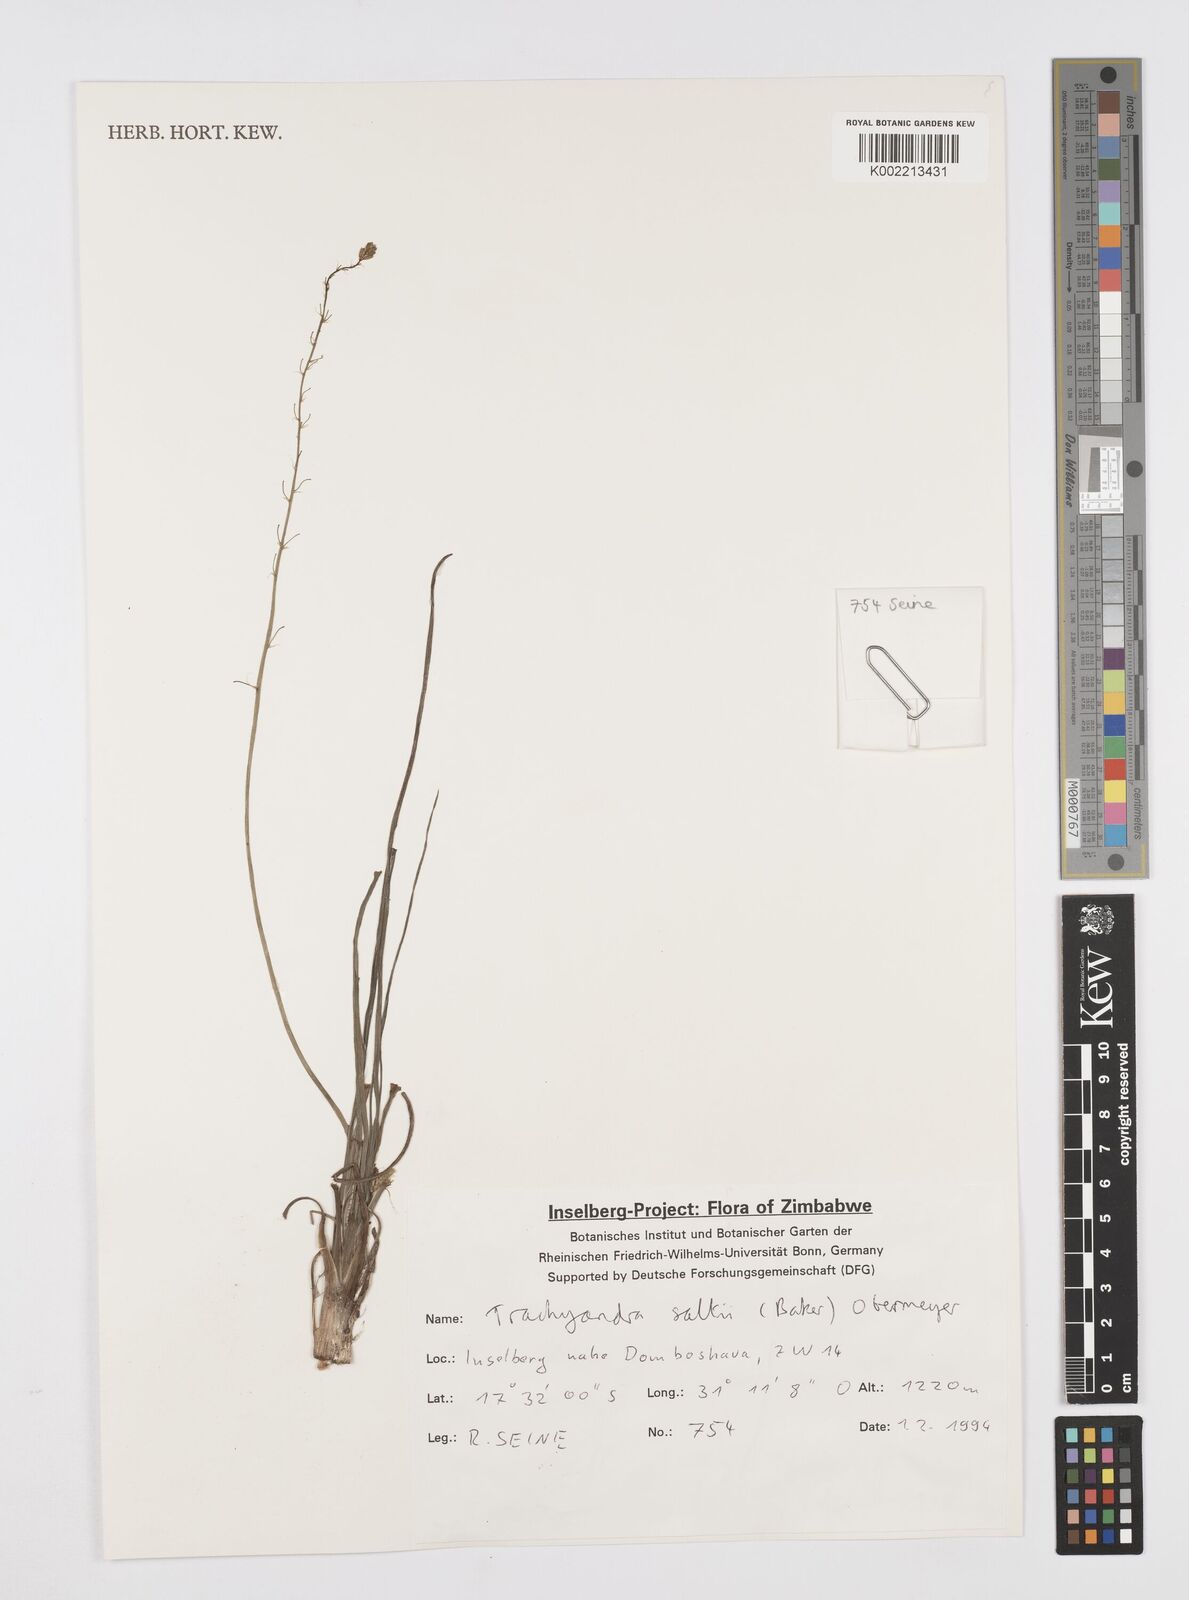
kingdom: Plantae
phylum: Tracheophyta
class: Liliopsida
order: Asparagales
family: Asphodelaceae
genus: Trachyandra
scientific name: Trachyandra saltii
